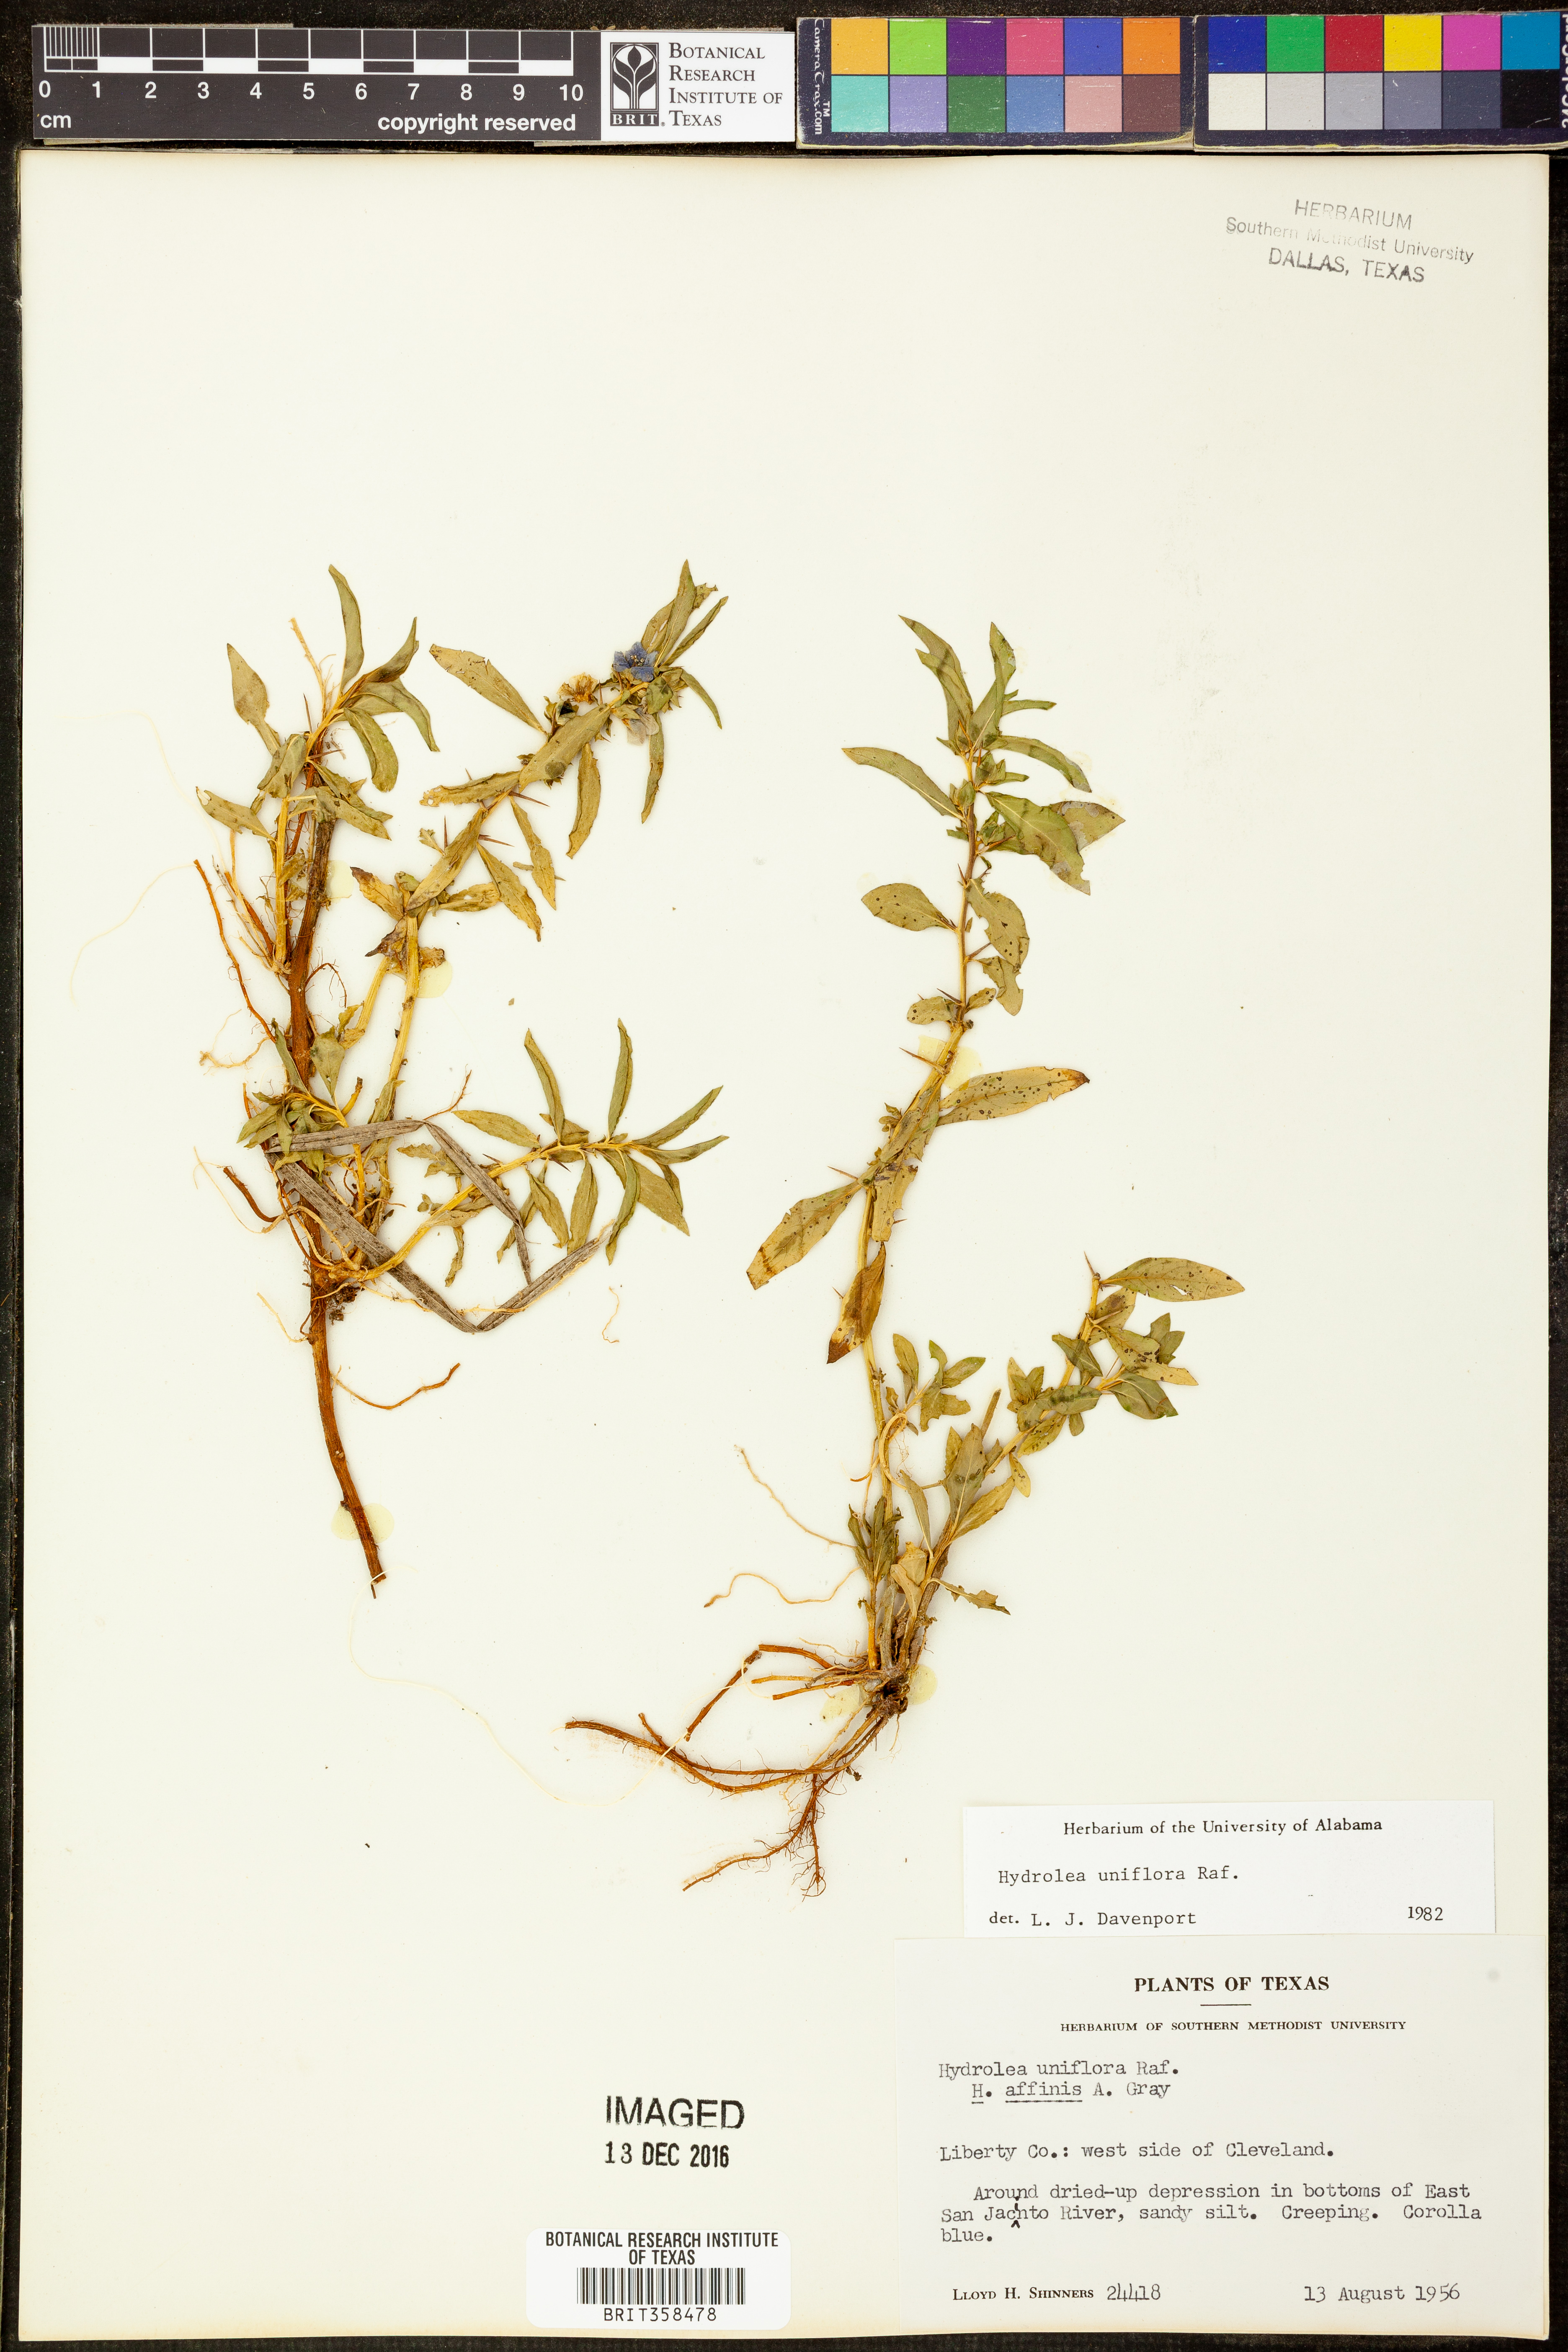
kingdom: Plantae
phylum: Tracheophyta
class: Magnoliopsida
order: Solanales
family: Hydroleaceae
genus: Hydrolea
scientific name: Hydrolea uniflora
